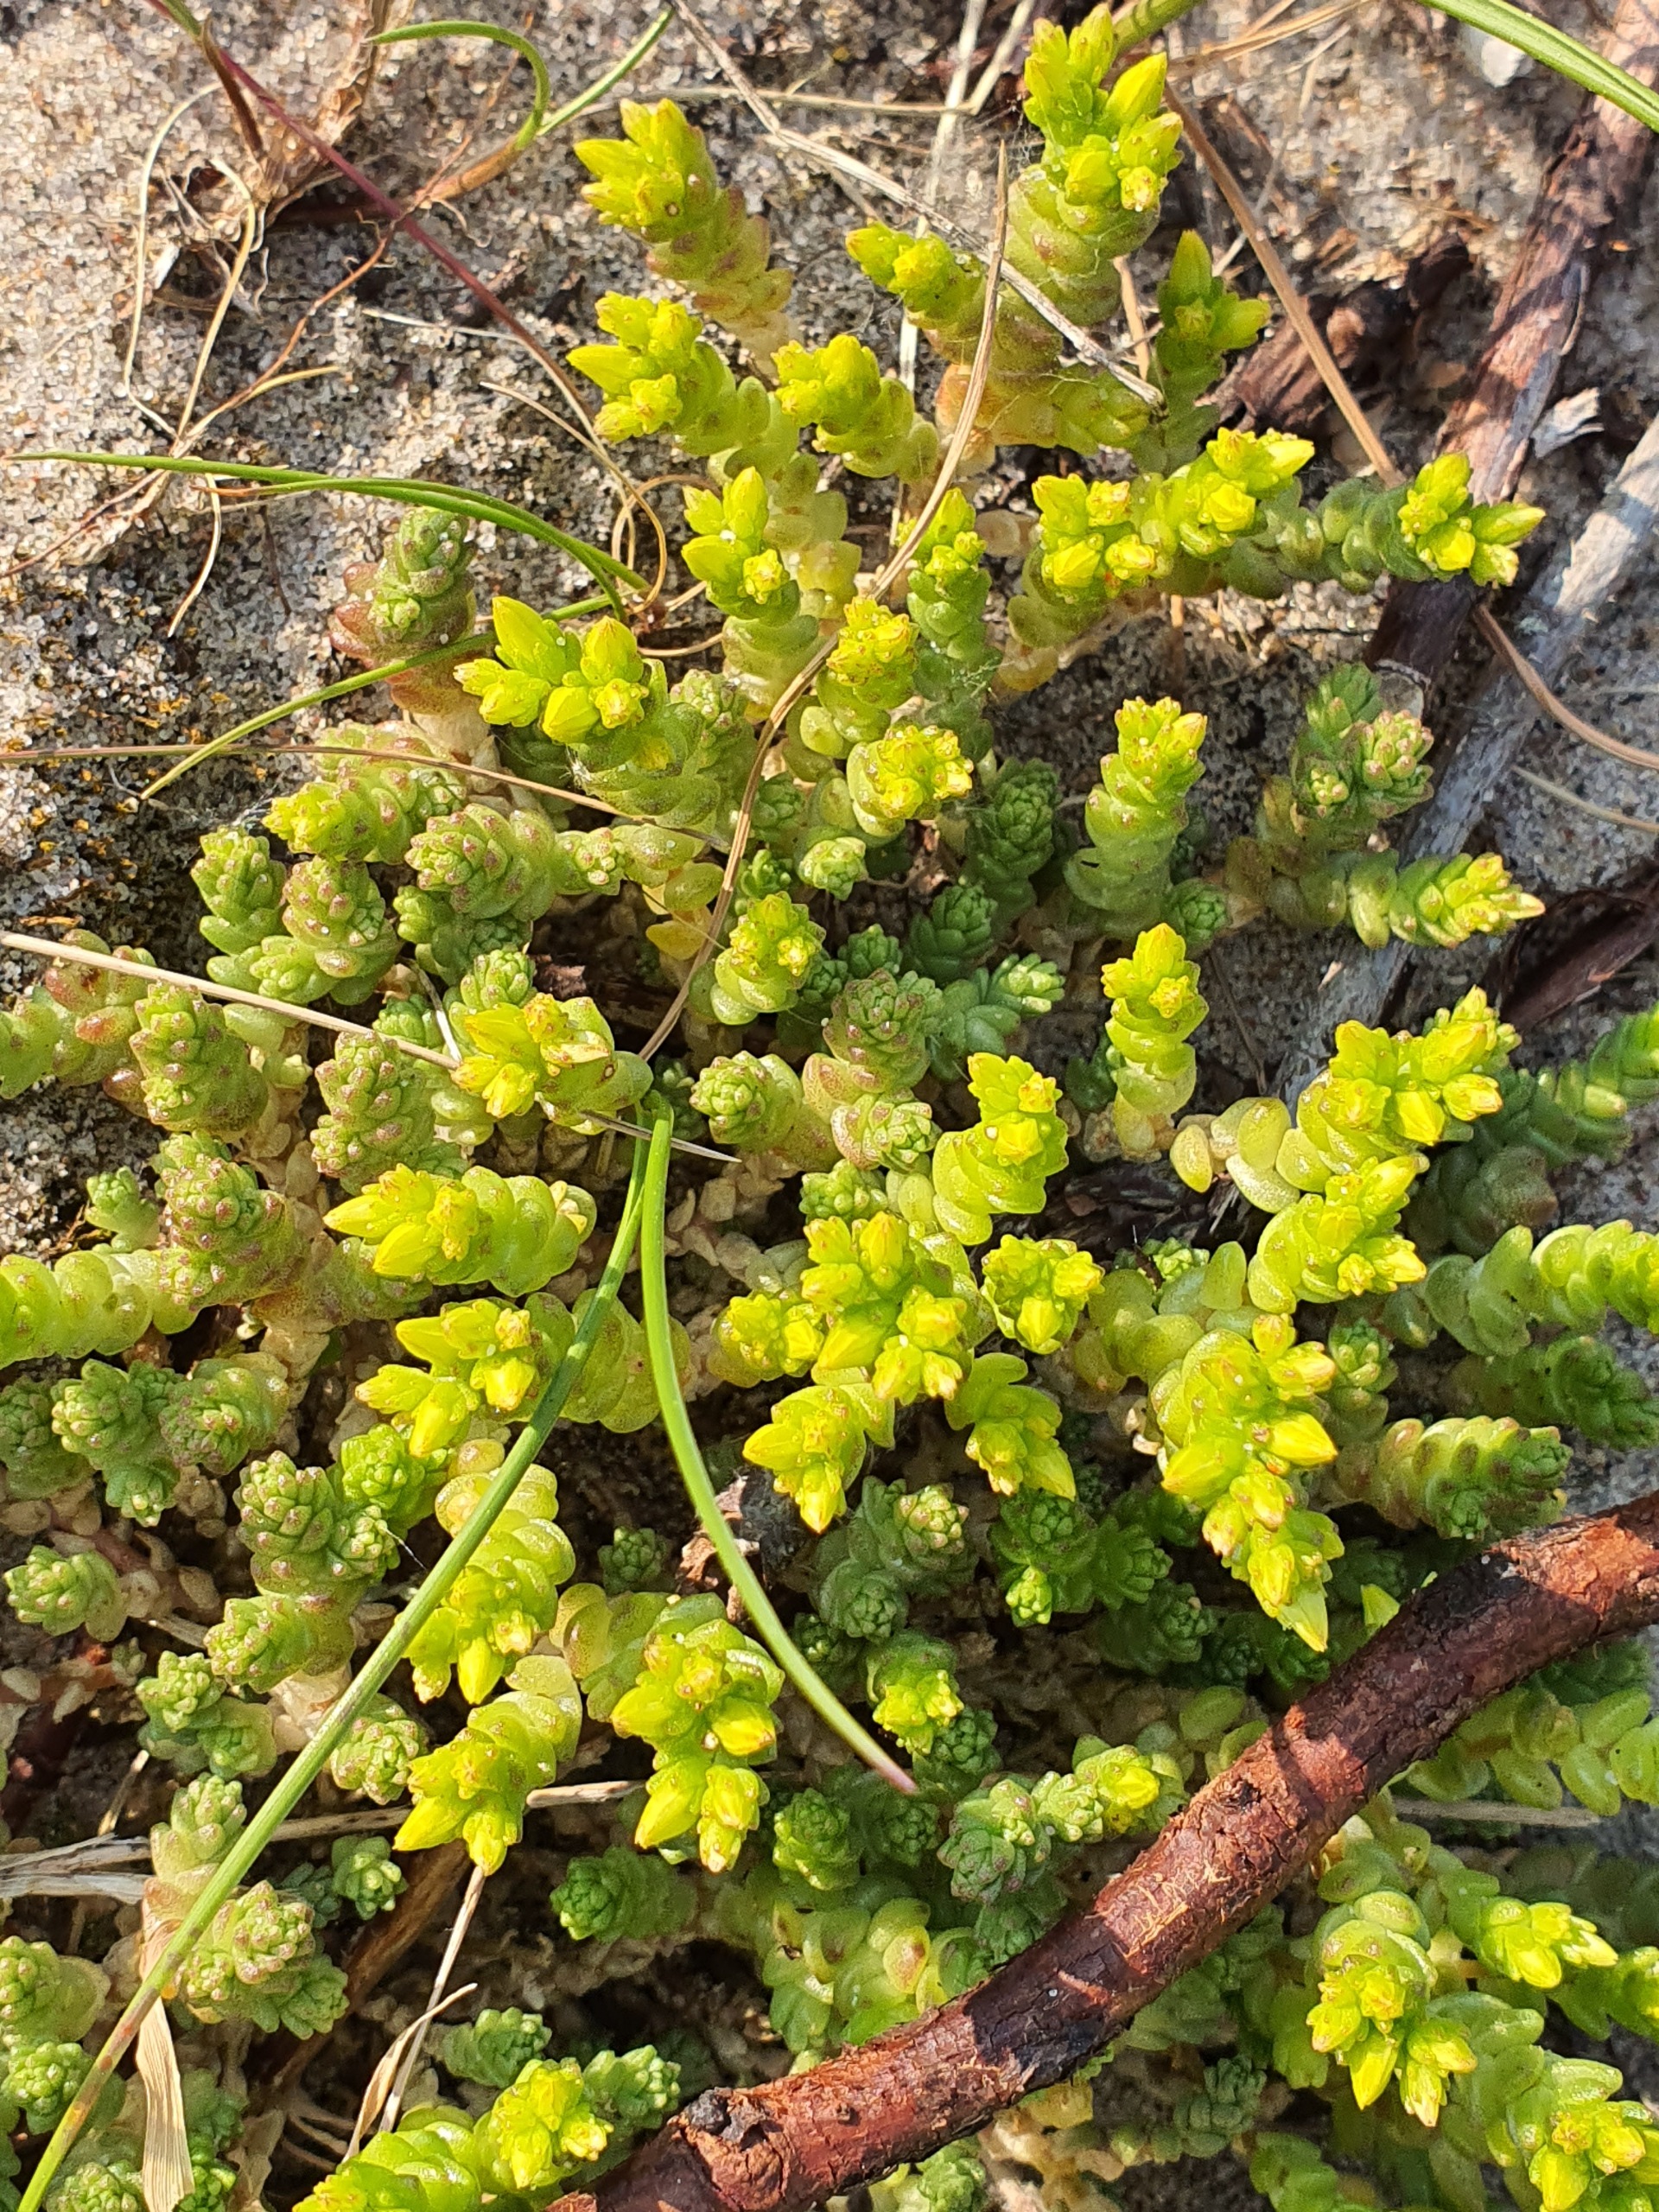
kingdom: Plantae
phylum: Tracheophyta
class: Magnoliopsida
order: Saxifragales
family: Crassulaceae
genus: Sedum
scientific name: Sedum acre
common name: Bidende stenurt
